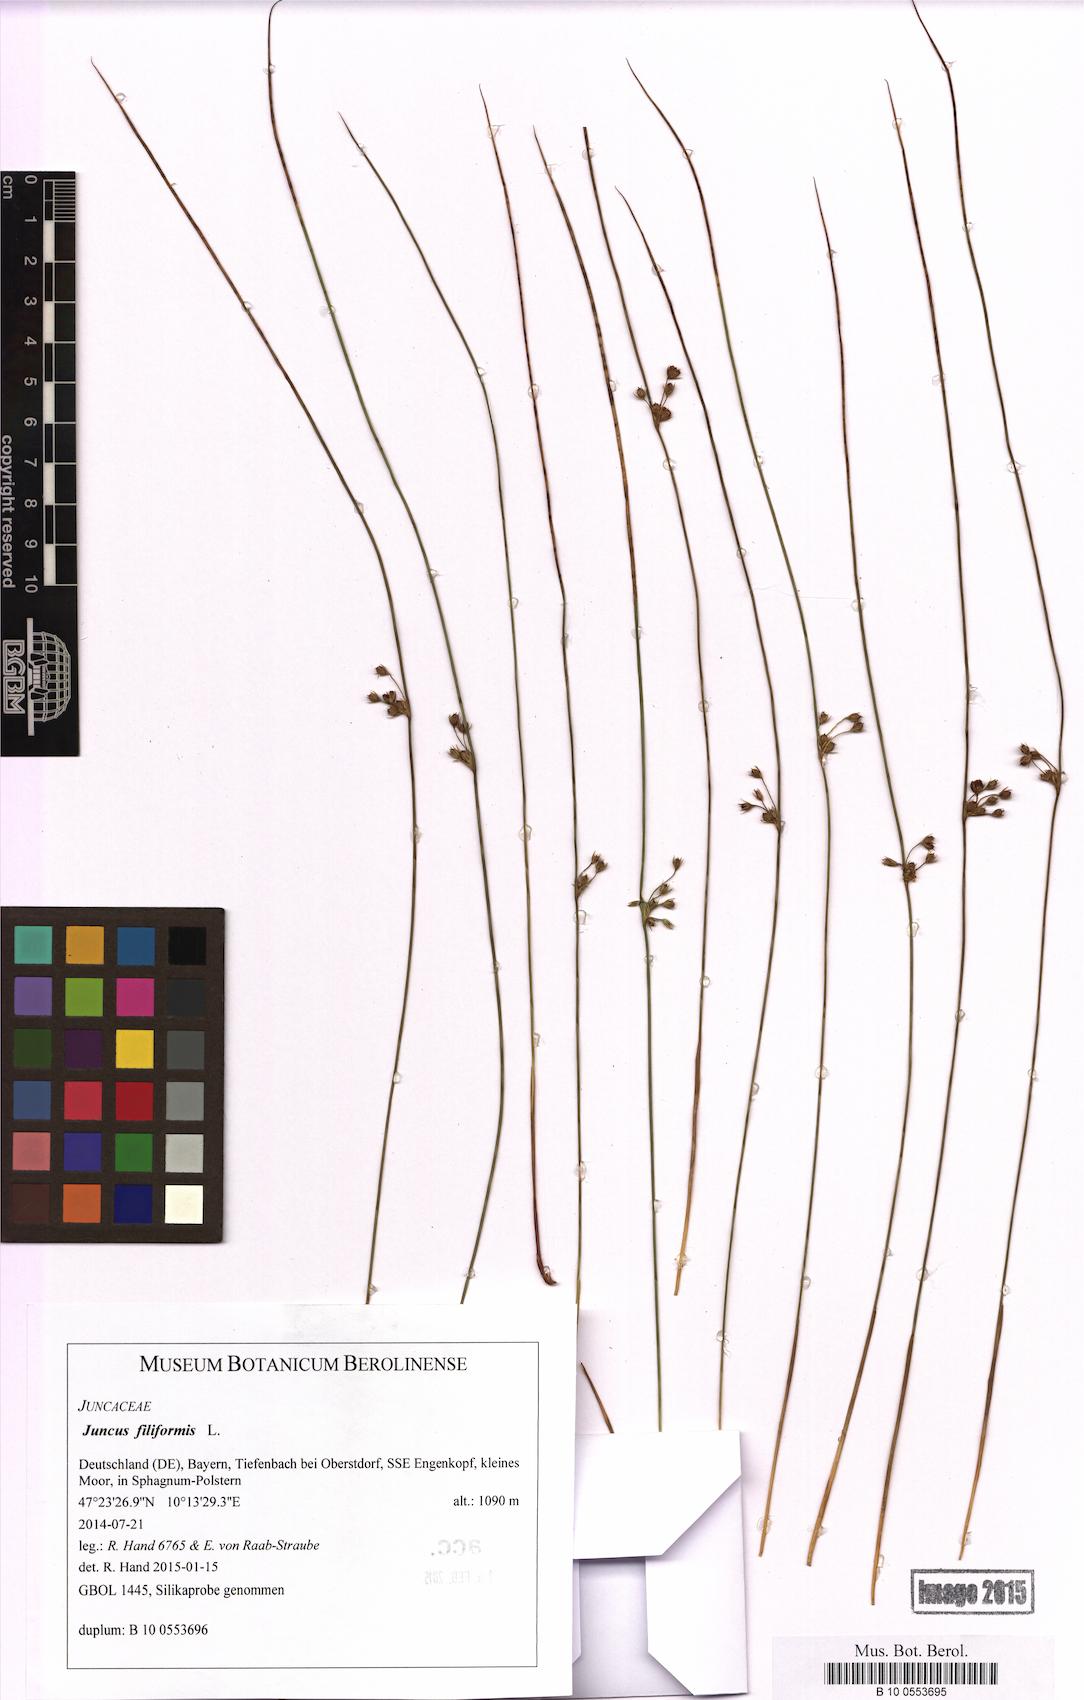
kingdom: Plantae
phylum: Tracheophyta
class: Liliopsida
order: Poales
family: Juncaceae
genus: Juncus
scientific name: Juncus filiformis
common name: Thread rush
